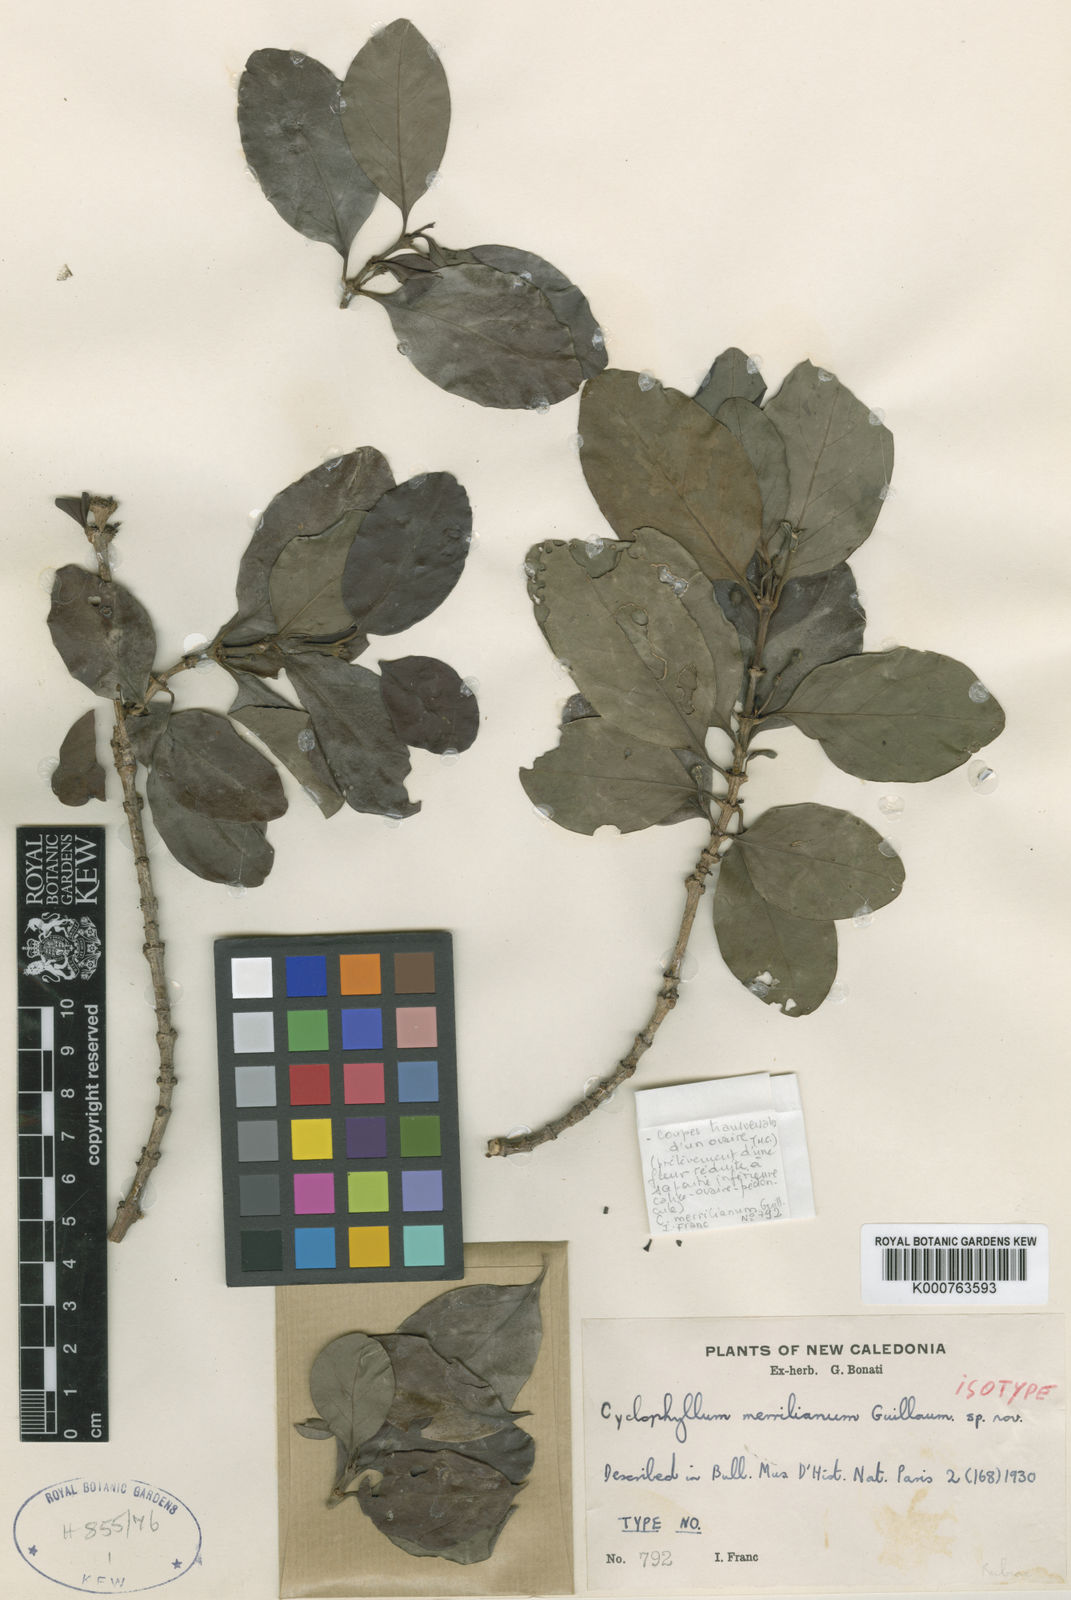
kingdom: Plantae
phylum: Tracheophyta
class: Magnoliopsida
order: Gentianales
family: Rubiaceae
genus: Cyclophyllum
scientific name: Cyclophyllum merrillianum
